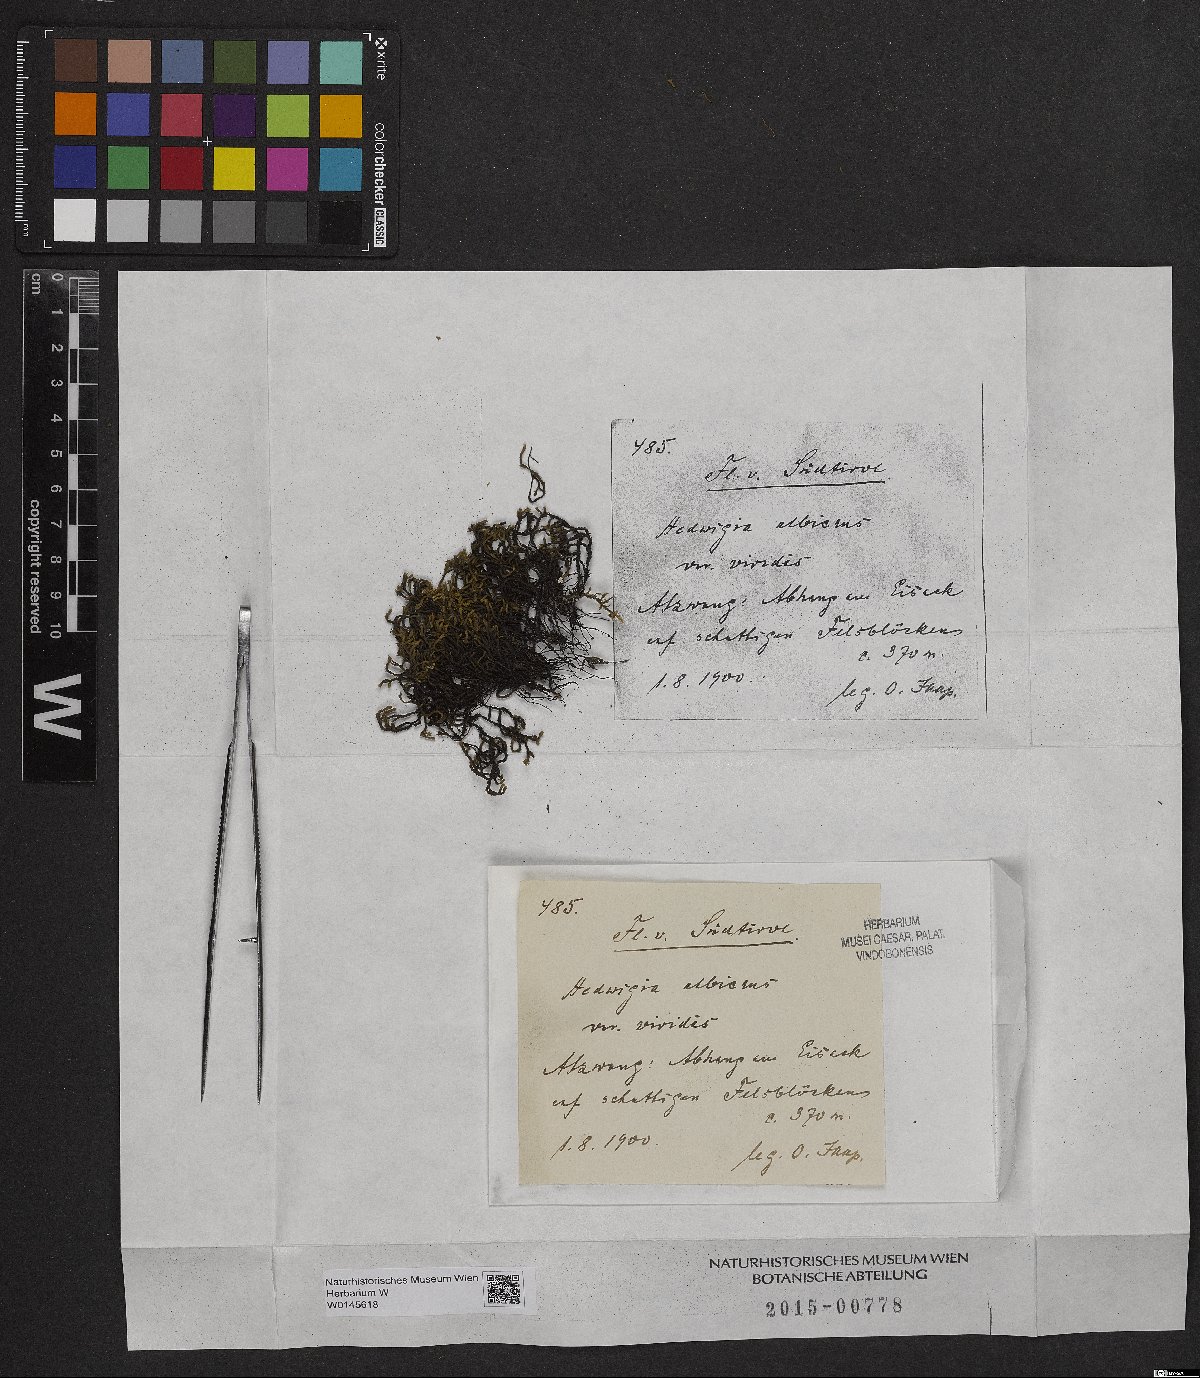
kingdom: Plantae
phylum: Bryophyta
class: Bryopsida
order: Hedwigiales
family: Hedwigiaceae
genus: Hedwigia
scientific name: Hedwigia ciliata
